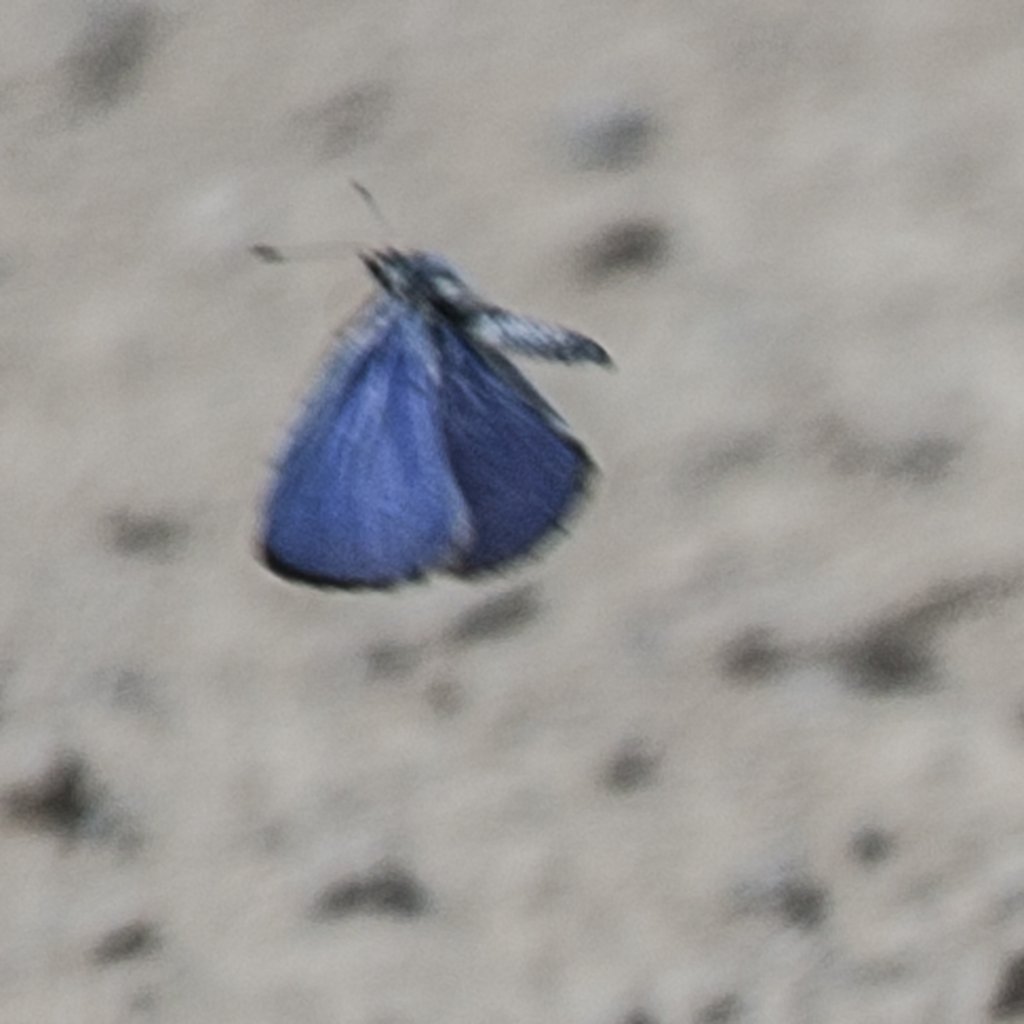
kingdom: Animalia
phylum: Arthropoda
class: Insecta
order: Lepidoptera
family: Lycaenidae
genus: Celastrina
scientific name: Celastrina ladon
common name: Spring Azure
